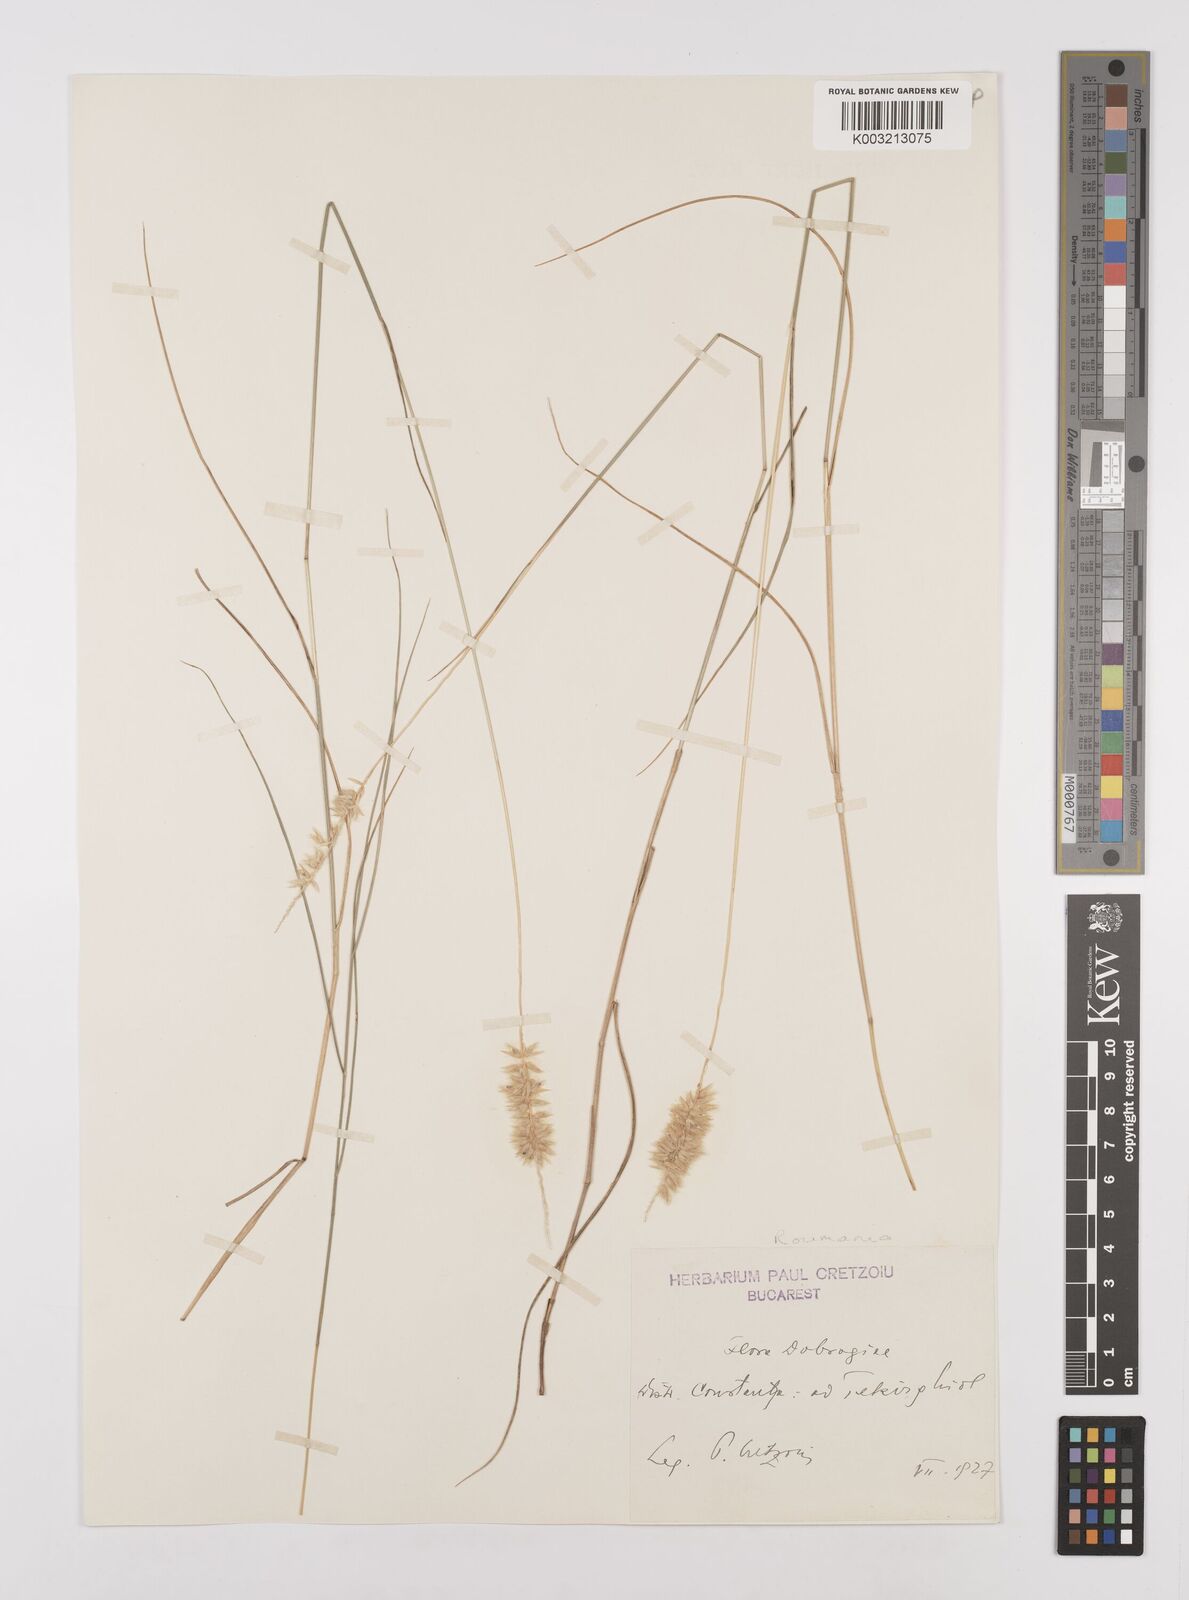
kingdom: Plantae
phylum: Tracheophyta
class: Liliopsida
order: Poales
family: Poaceae
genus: Melica
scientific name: Melica ciliata
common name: Hairy melicgrass
